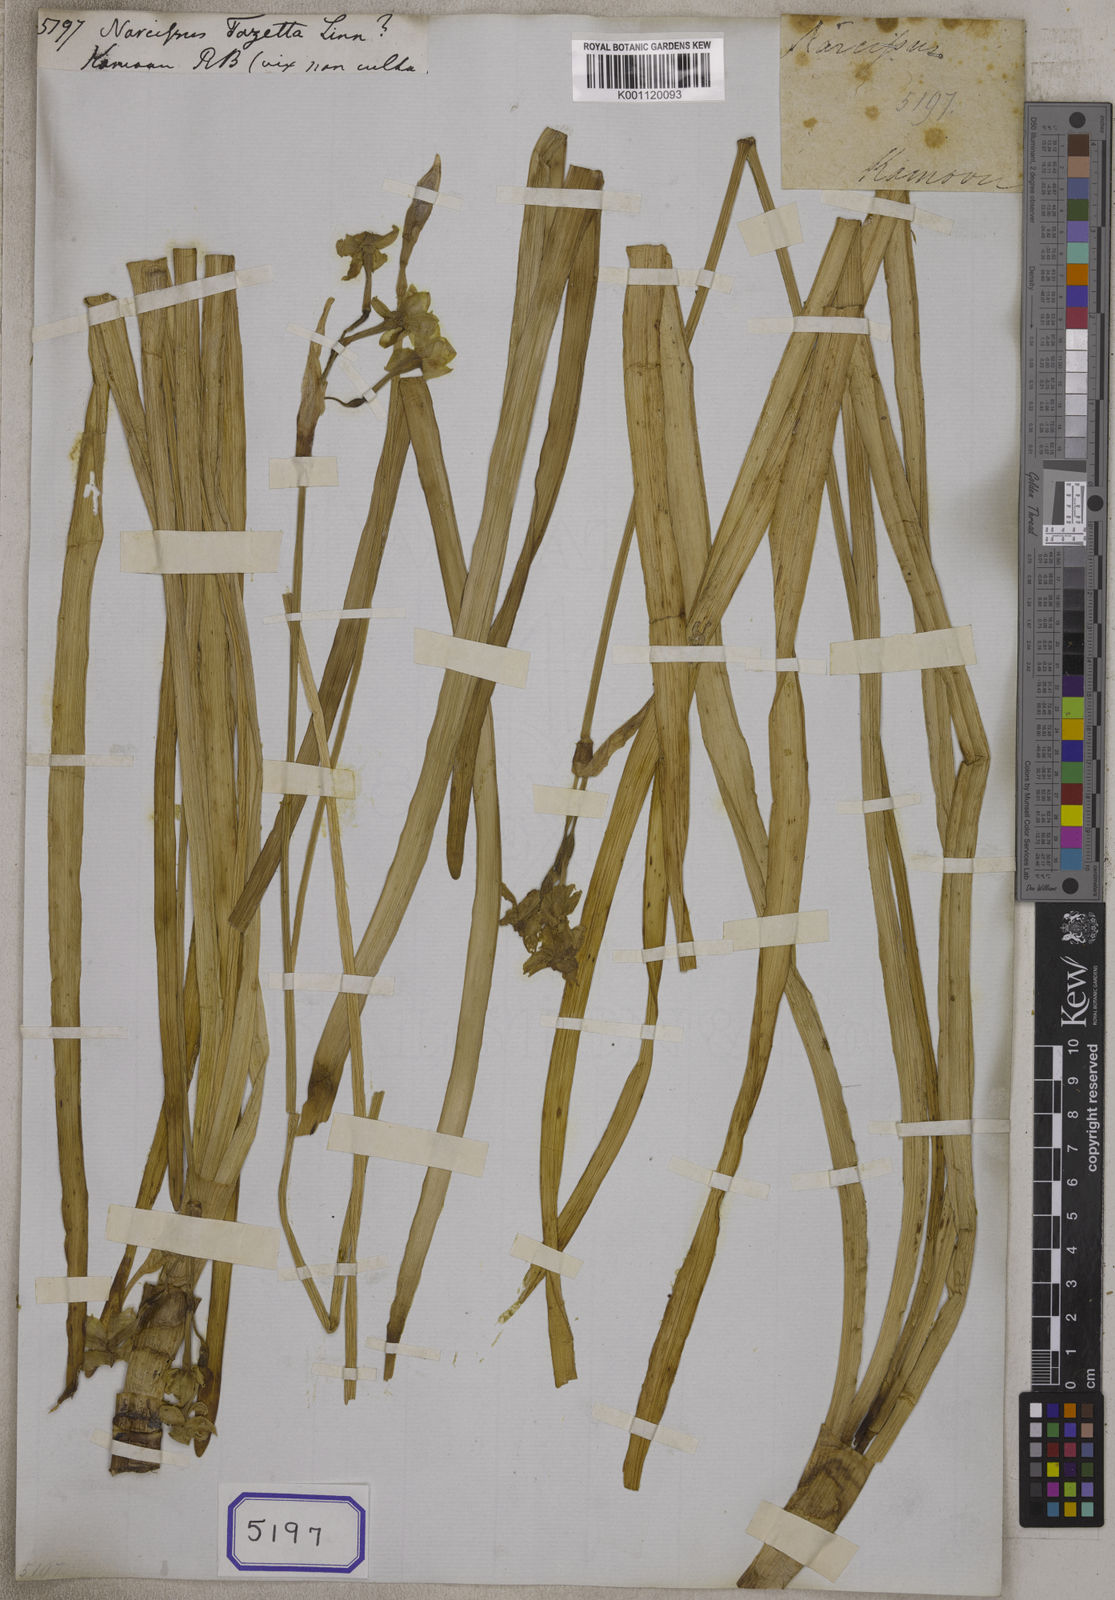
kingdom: Plantae
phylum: Tracheophyta
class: Liliopsida
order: Asparagales
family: Amaryllidaceae
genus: Narcissus
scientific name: Narcissus tazetta
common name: Bunch-flowered daffodil
